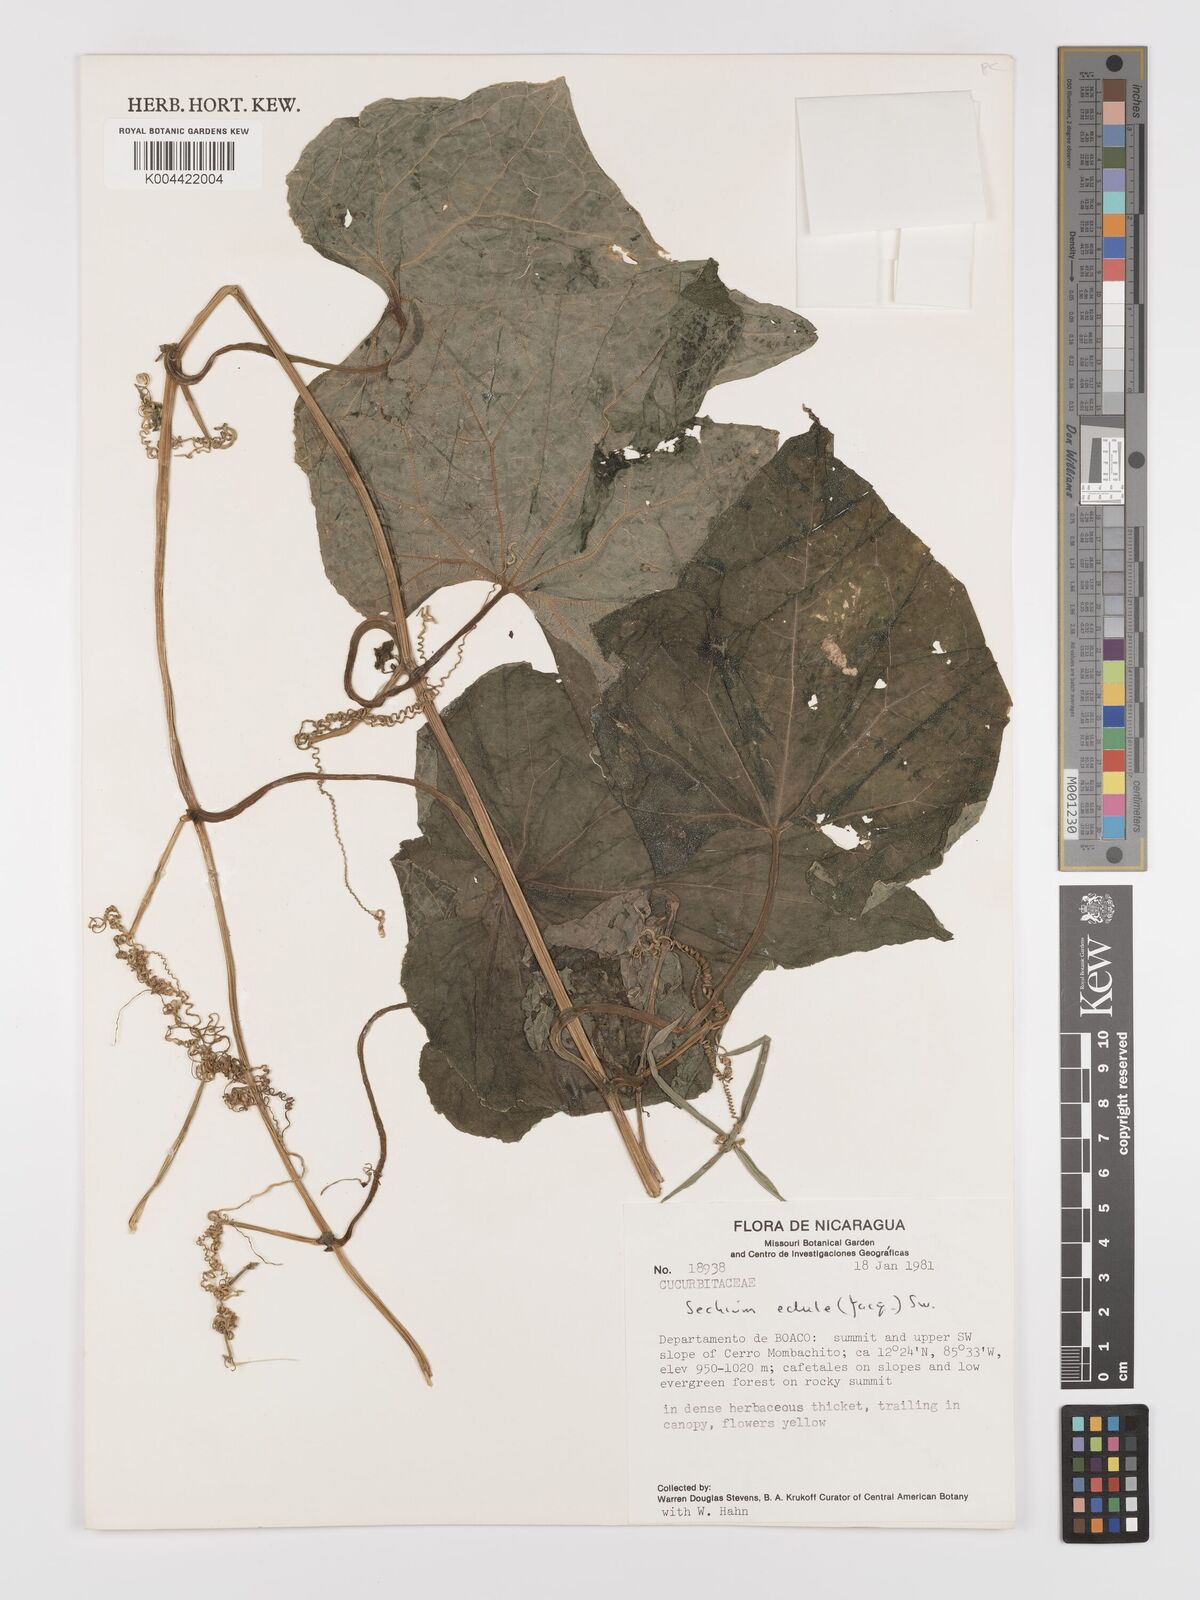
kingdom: Plantae
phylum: Tracheophyta
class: Magnoliopsida
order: Cucurbitales
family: Cucurbitaceae
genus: Sechium
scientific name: Sechium edule
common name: Chayote
